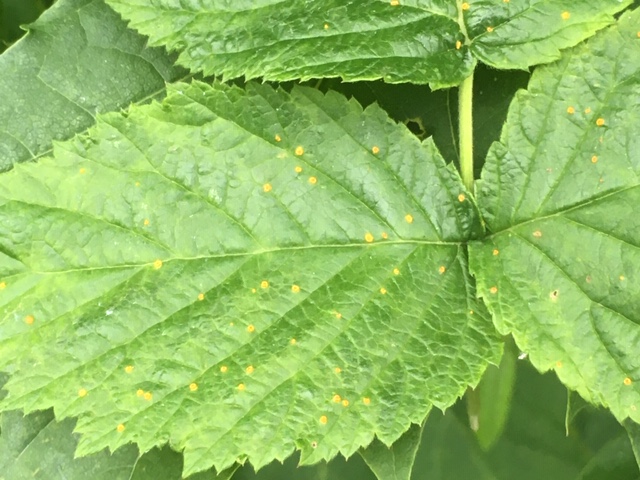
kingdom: Fungi
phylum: Basidiomycota
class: Pucciniomycetes
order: Pucciniales
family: Phragmidiaceae
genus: Phragmidium
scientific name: Phragmidium rubi-idaei
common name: hindbær-flercellerust
